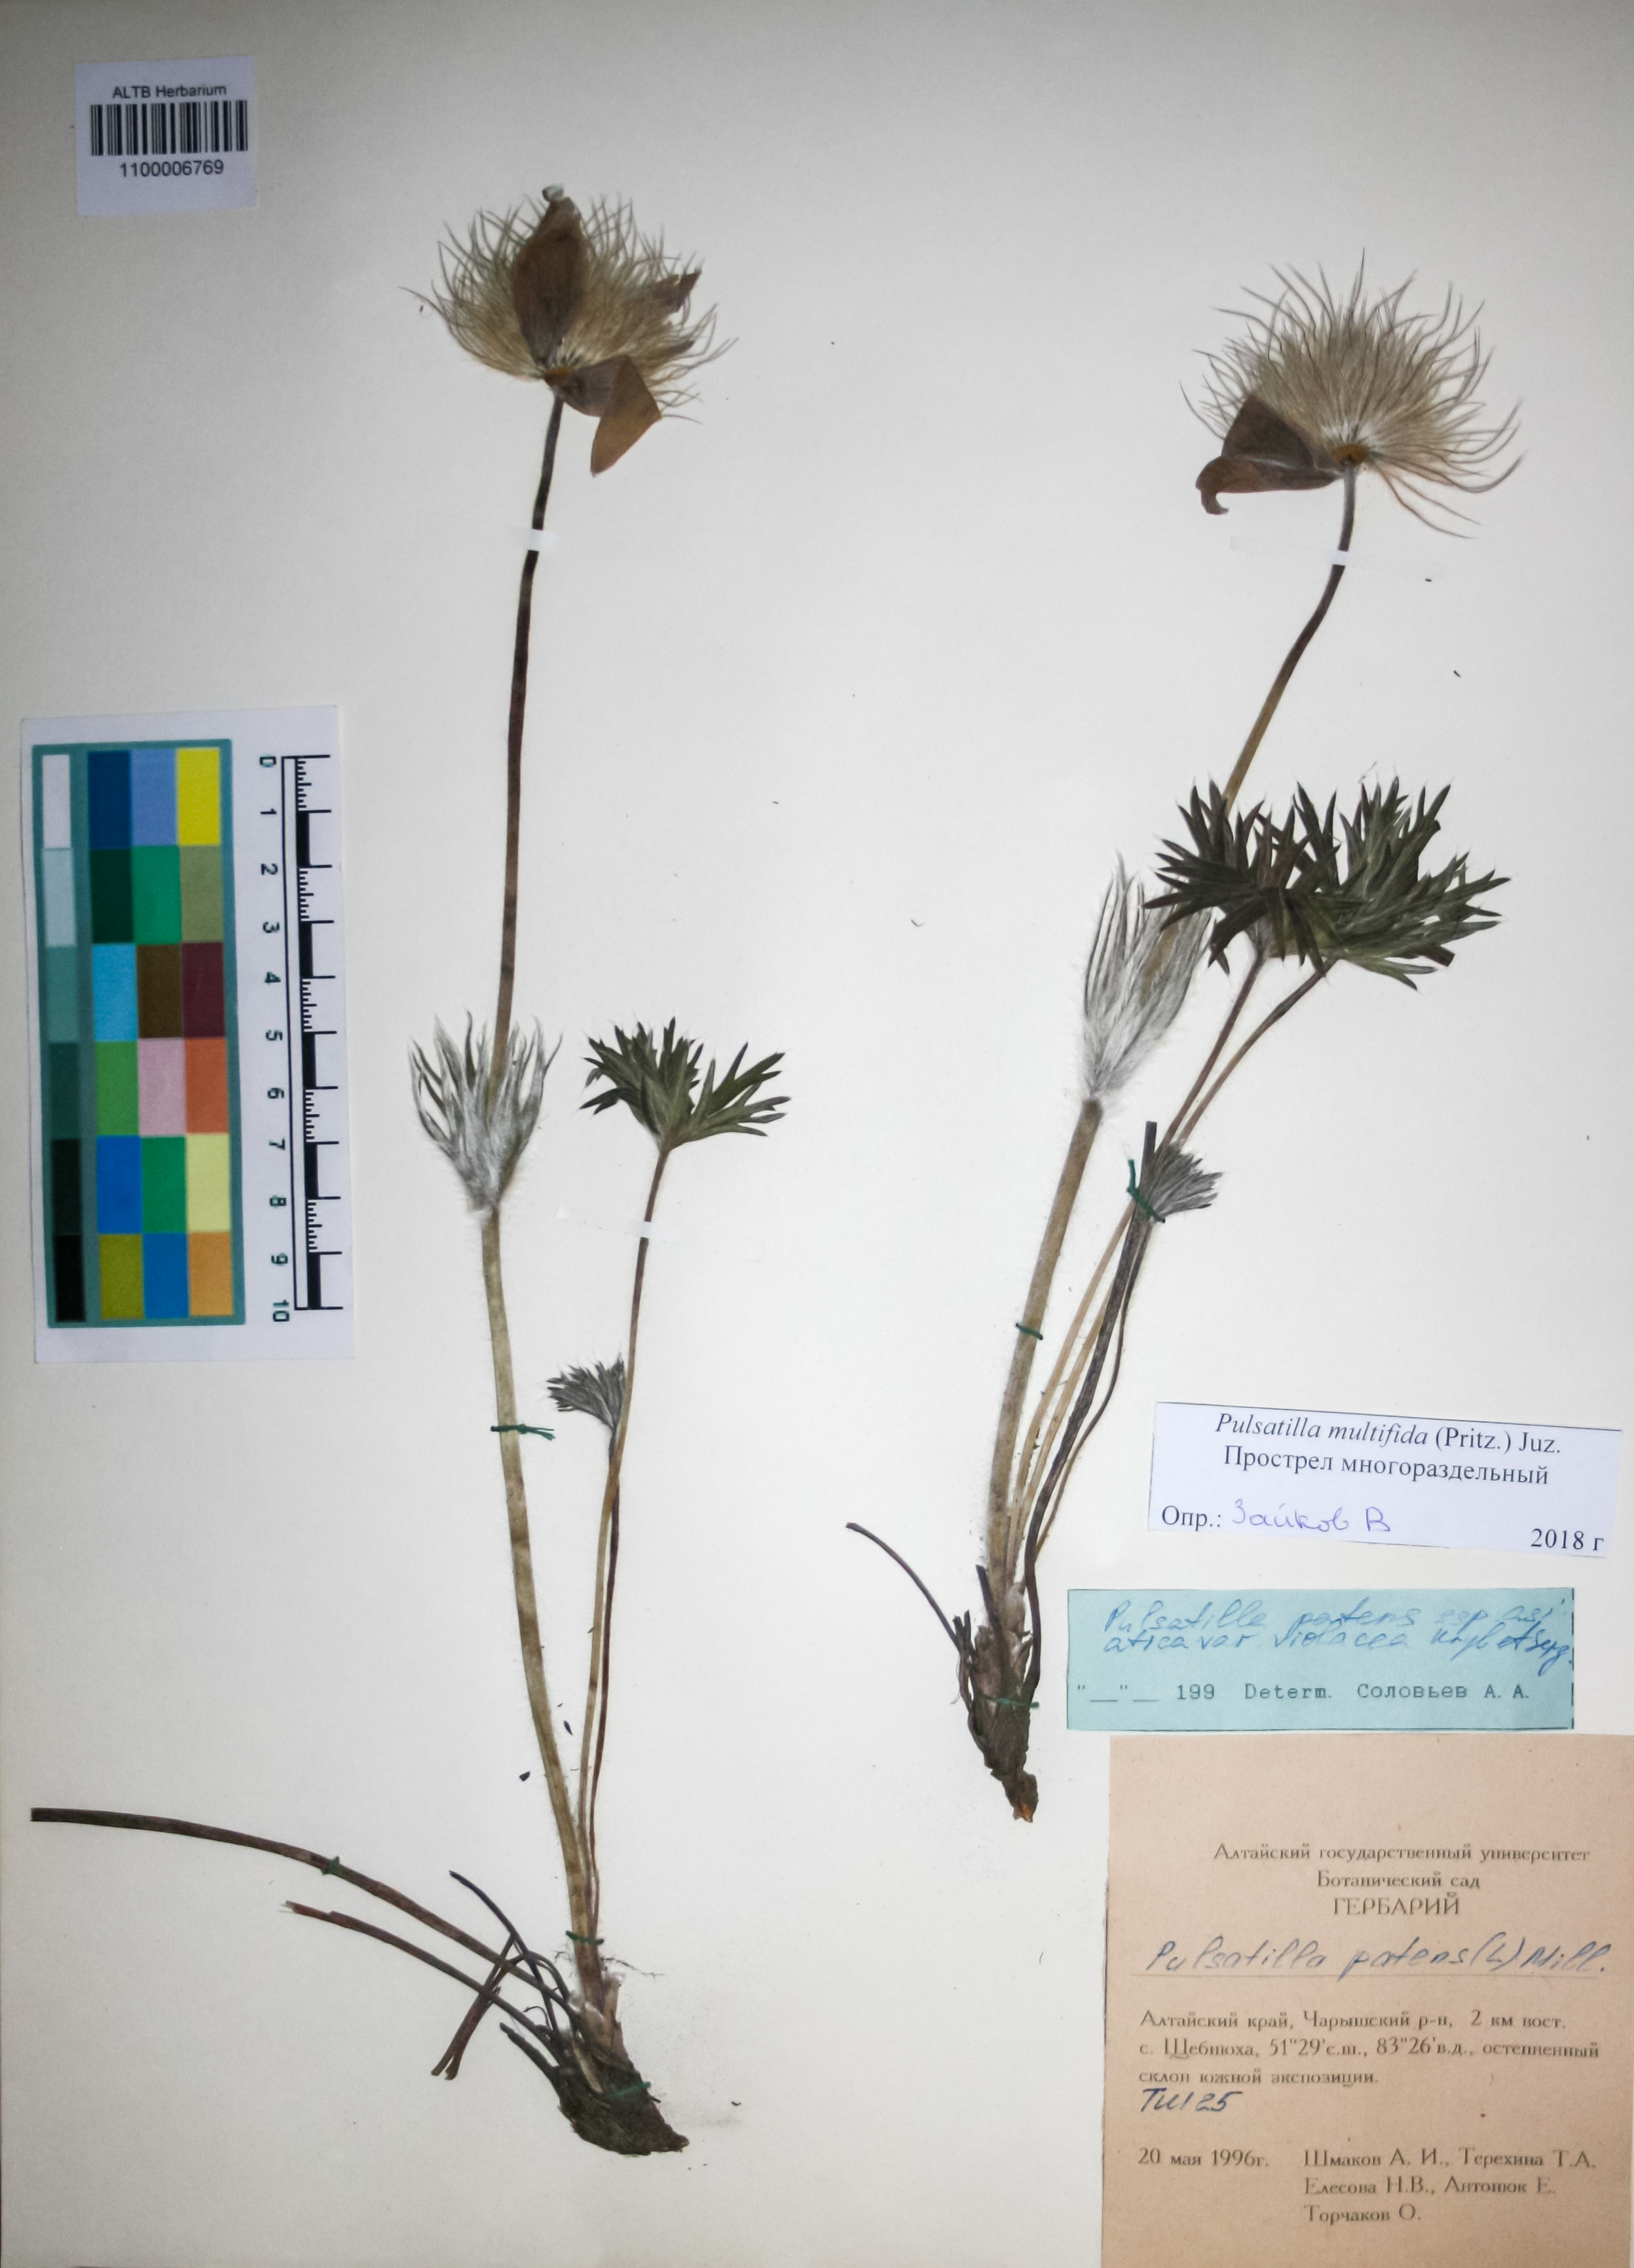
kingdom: Plantae
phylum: Tracheophyta
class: Magnoliopsida
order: Ranunculales
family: Ranunculaceae
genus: Pulsatilla
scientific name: Pulsatilla patens
